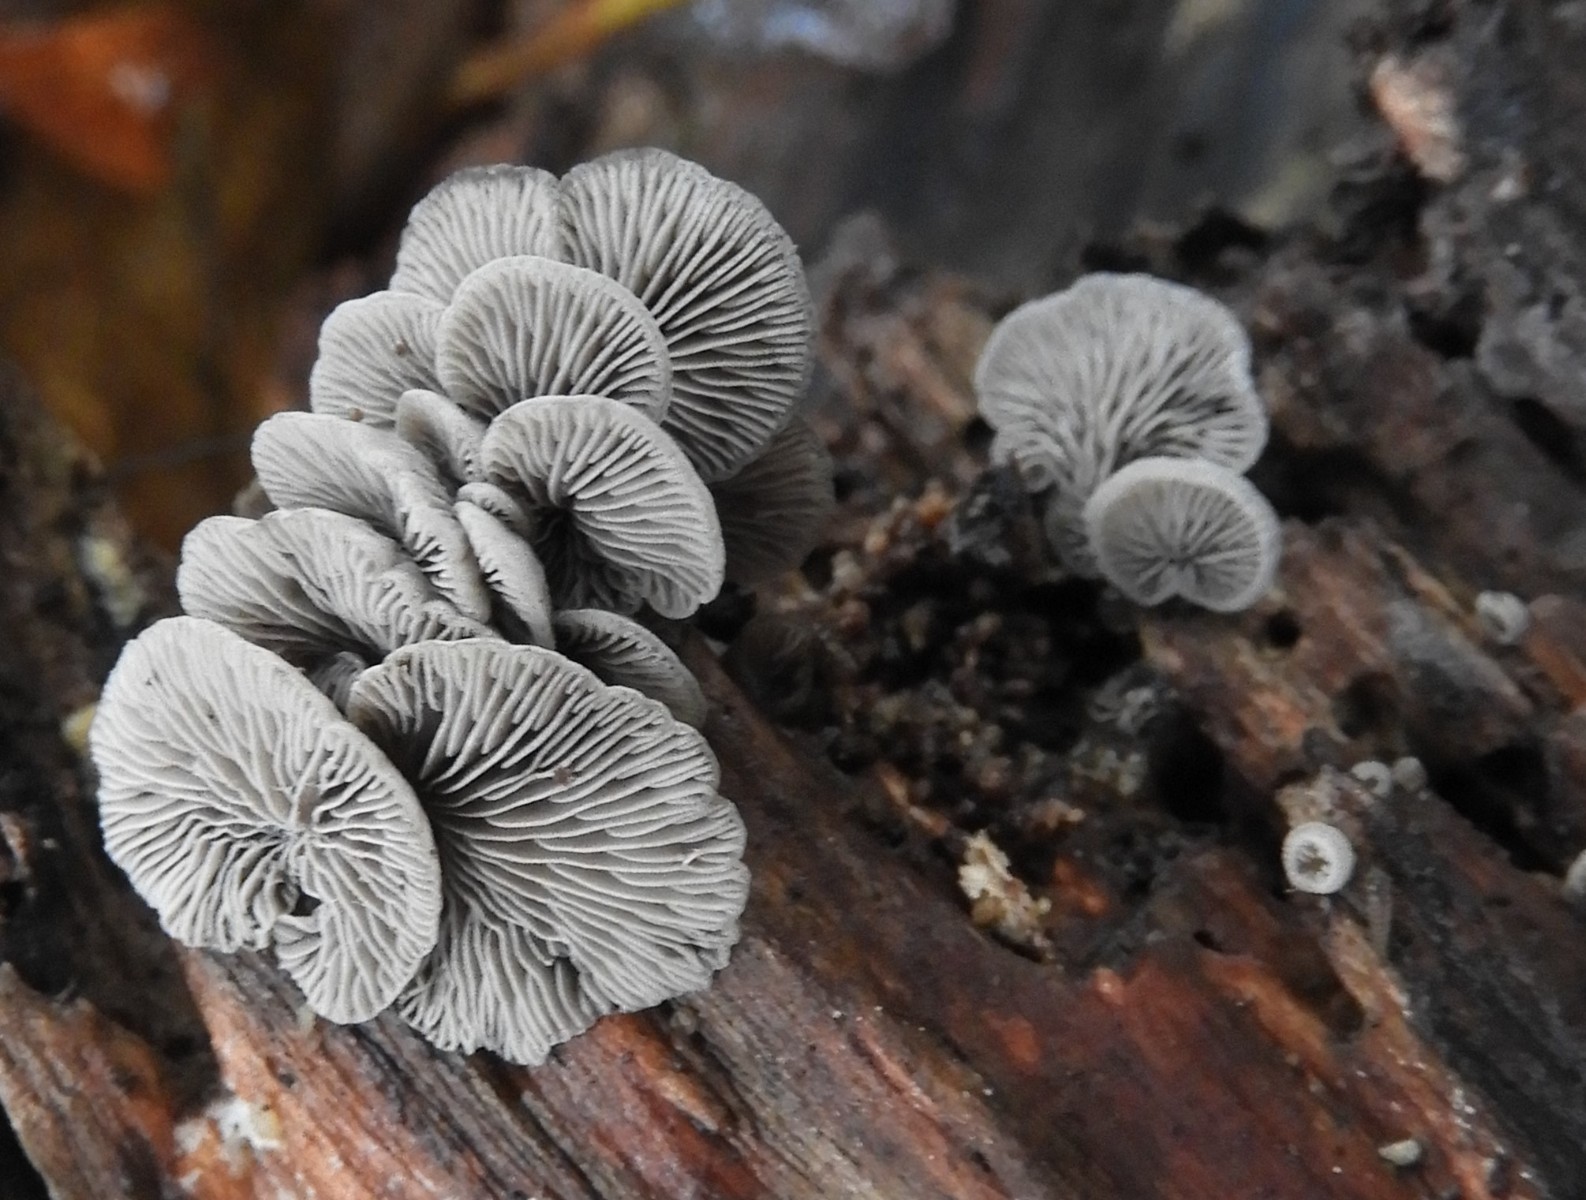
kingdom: Fungi
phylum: Basidiomycota
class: Agaricomycetes
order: Agaricales
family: Pleurotaceae
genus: Resupinatus
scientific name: Resupinatus trichotis
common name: mørkfiltet barkhat
